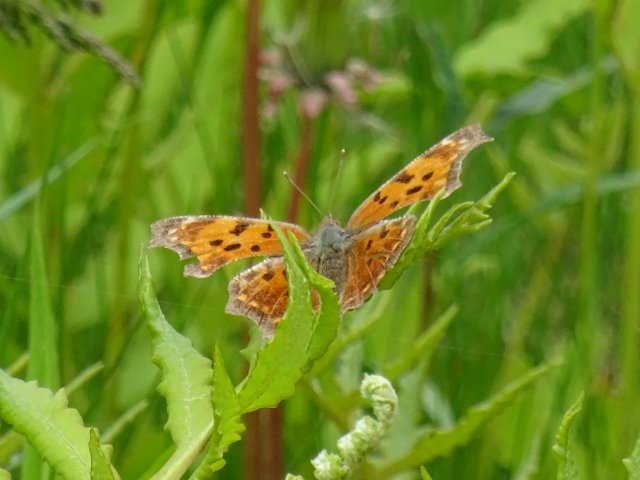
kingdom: Animalia
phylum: Arthropoda
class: Insecta
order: Lepidoptera
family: Nymphalidae
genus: Polygonia
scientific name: Polygonia comma
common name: Eastern Comma
